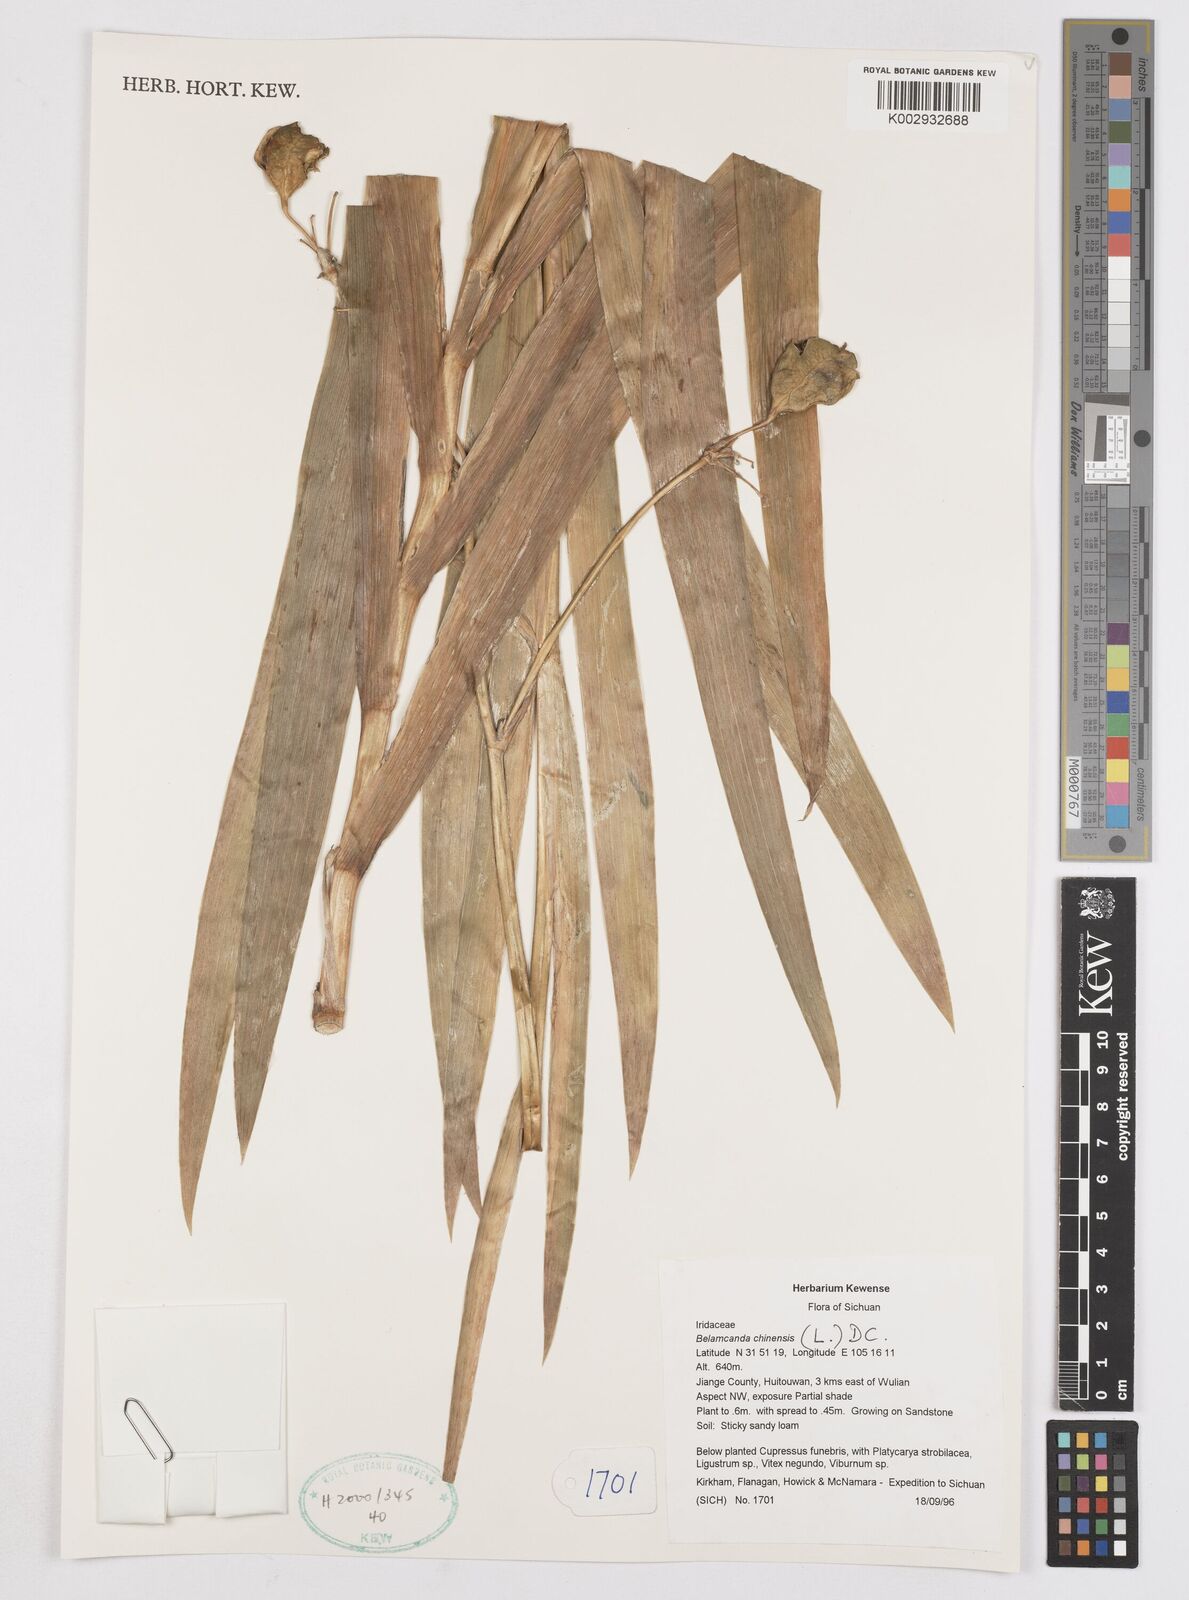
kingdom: Plantae
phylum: Tracheophyta
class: Liliopsida
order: Asparagales
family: Iridaceae
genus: Iris
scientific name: Iris
